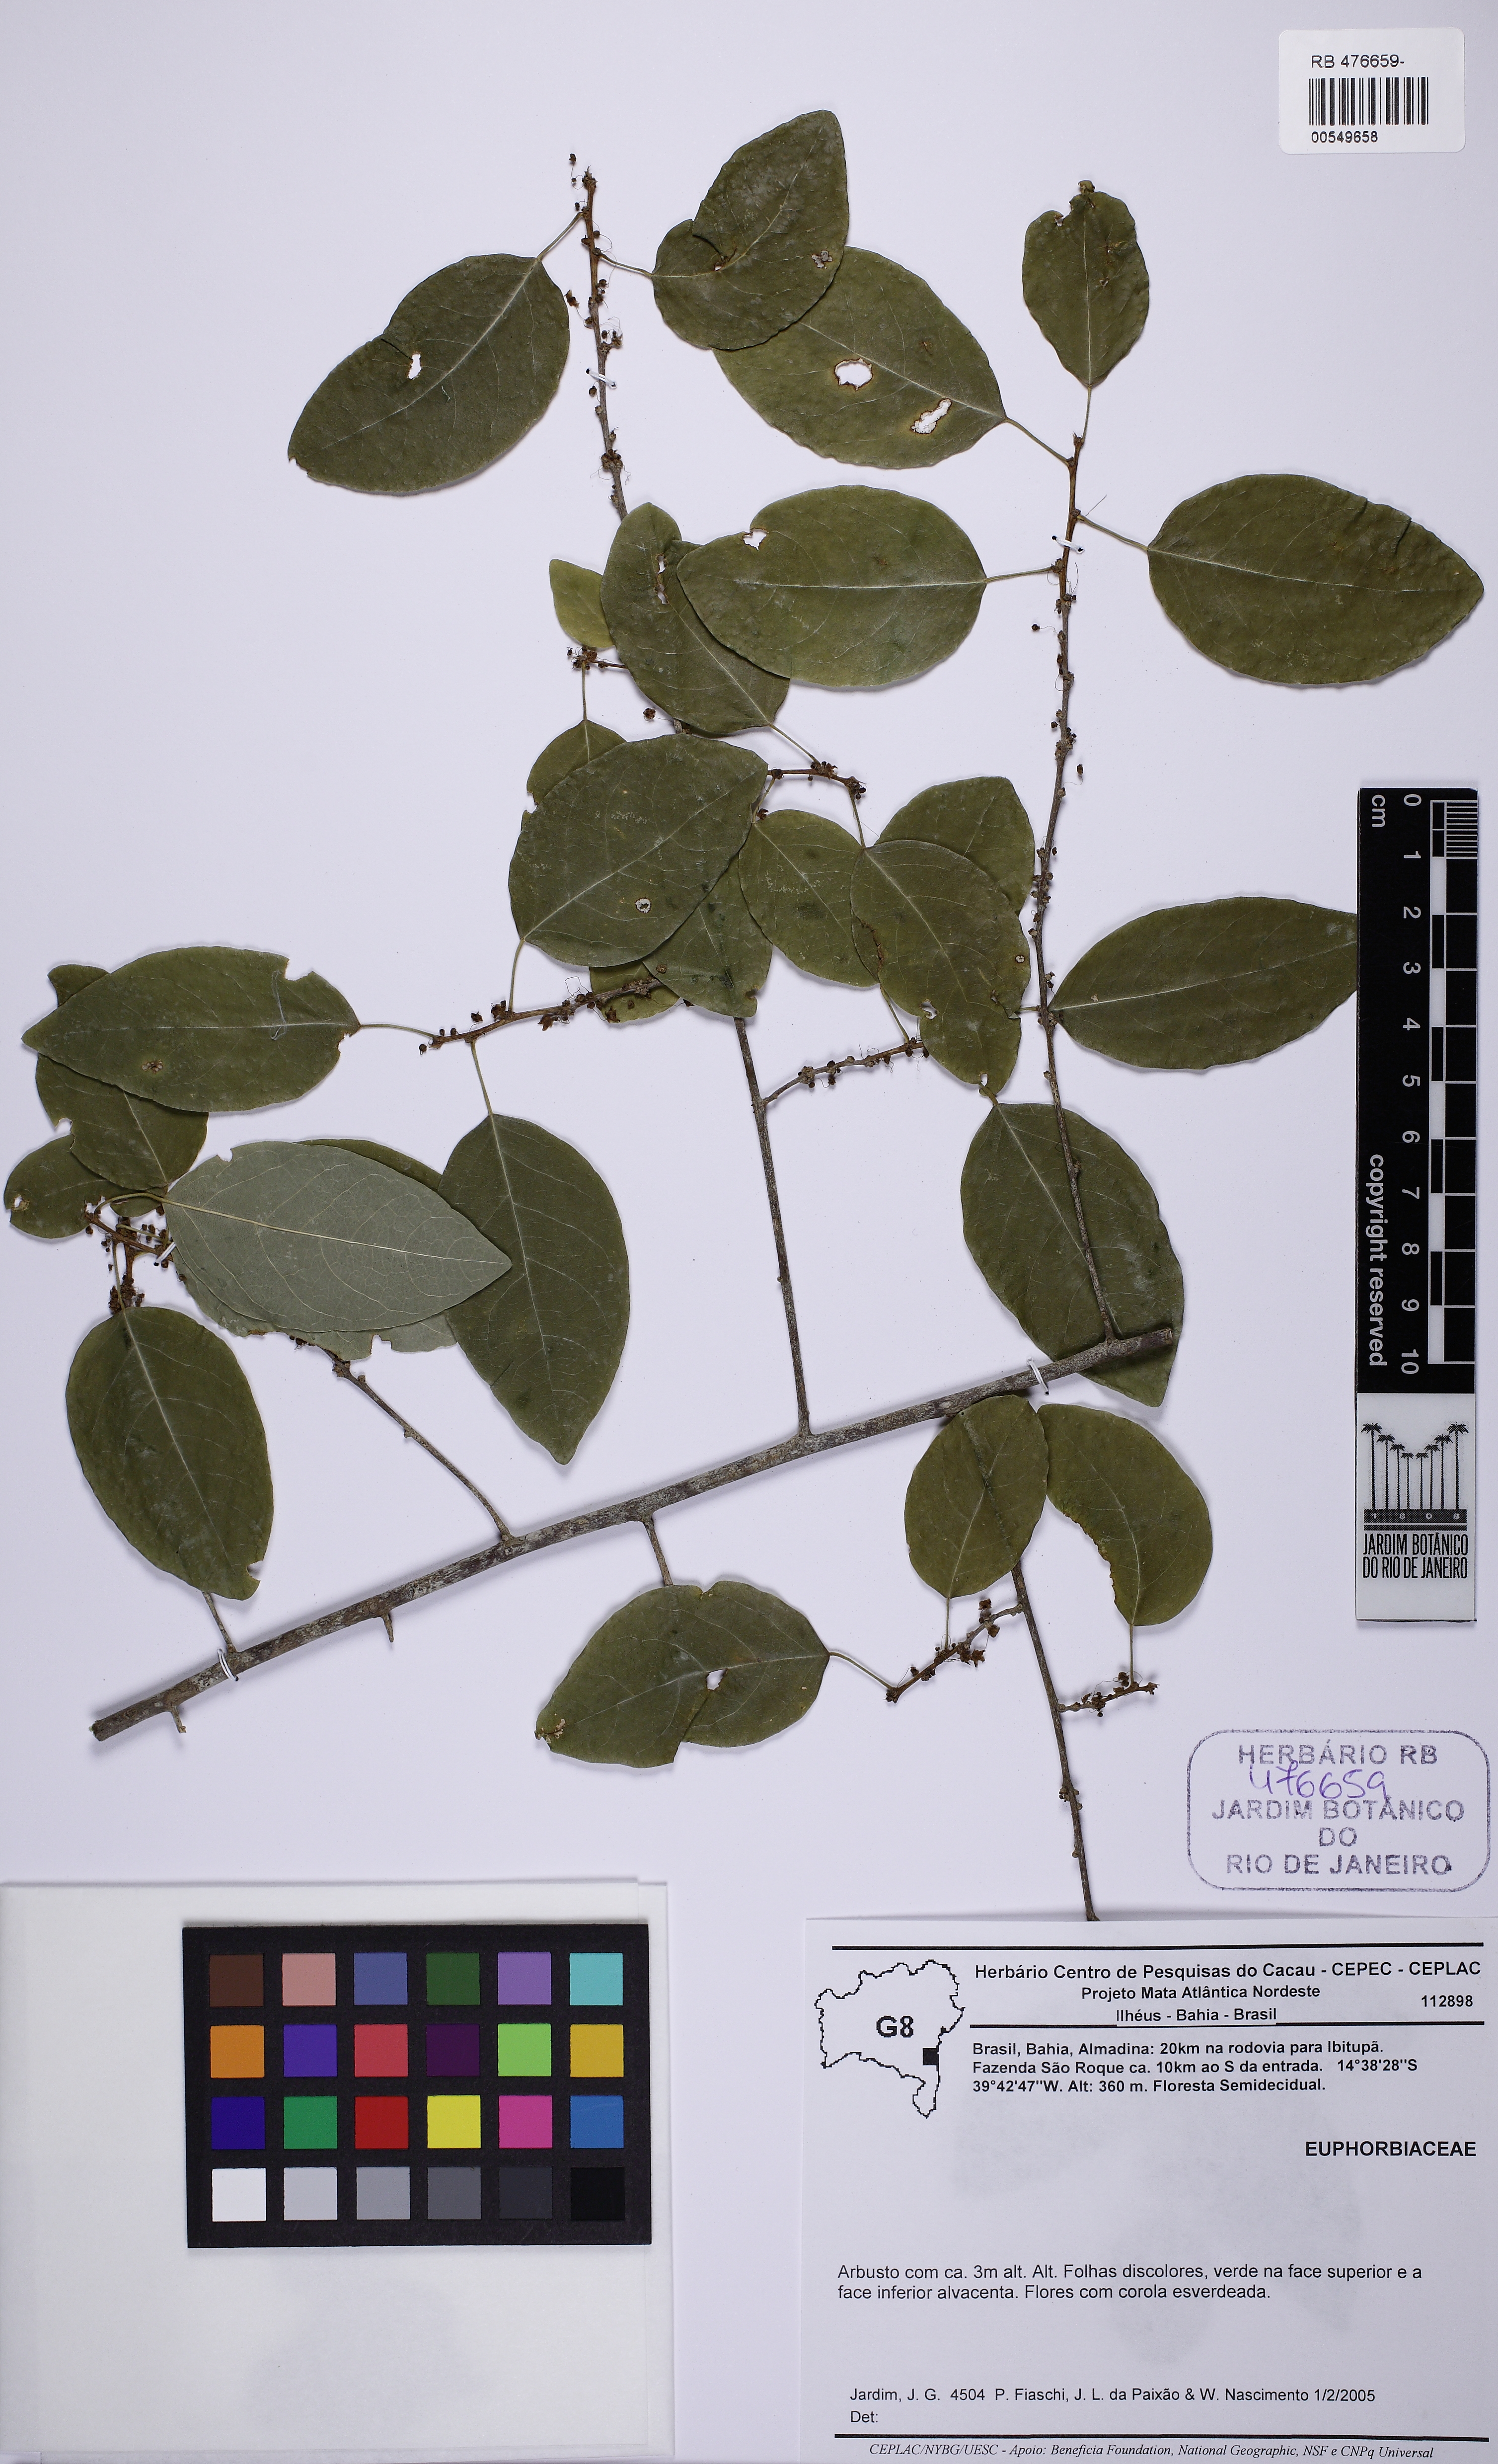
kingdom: Plantae
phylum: Tracheophyta
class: Magnoliopsida
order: Malpighiales
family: Phyllanthaceae
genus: Astrocasia
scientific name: Astrocasia
